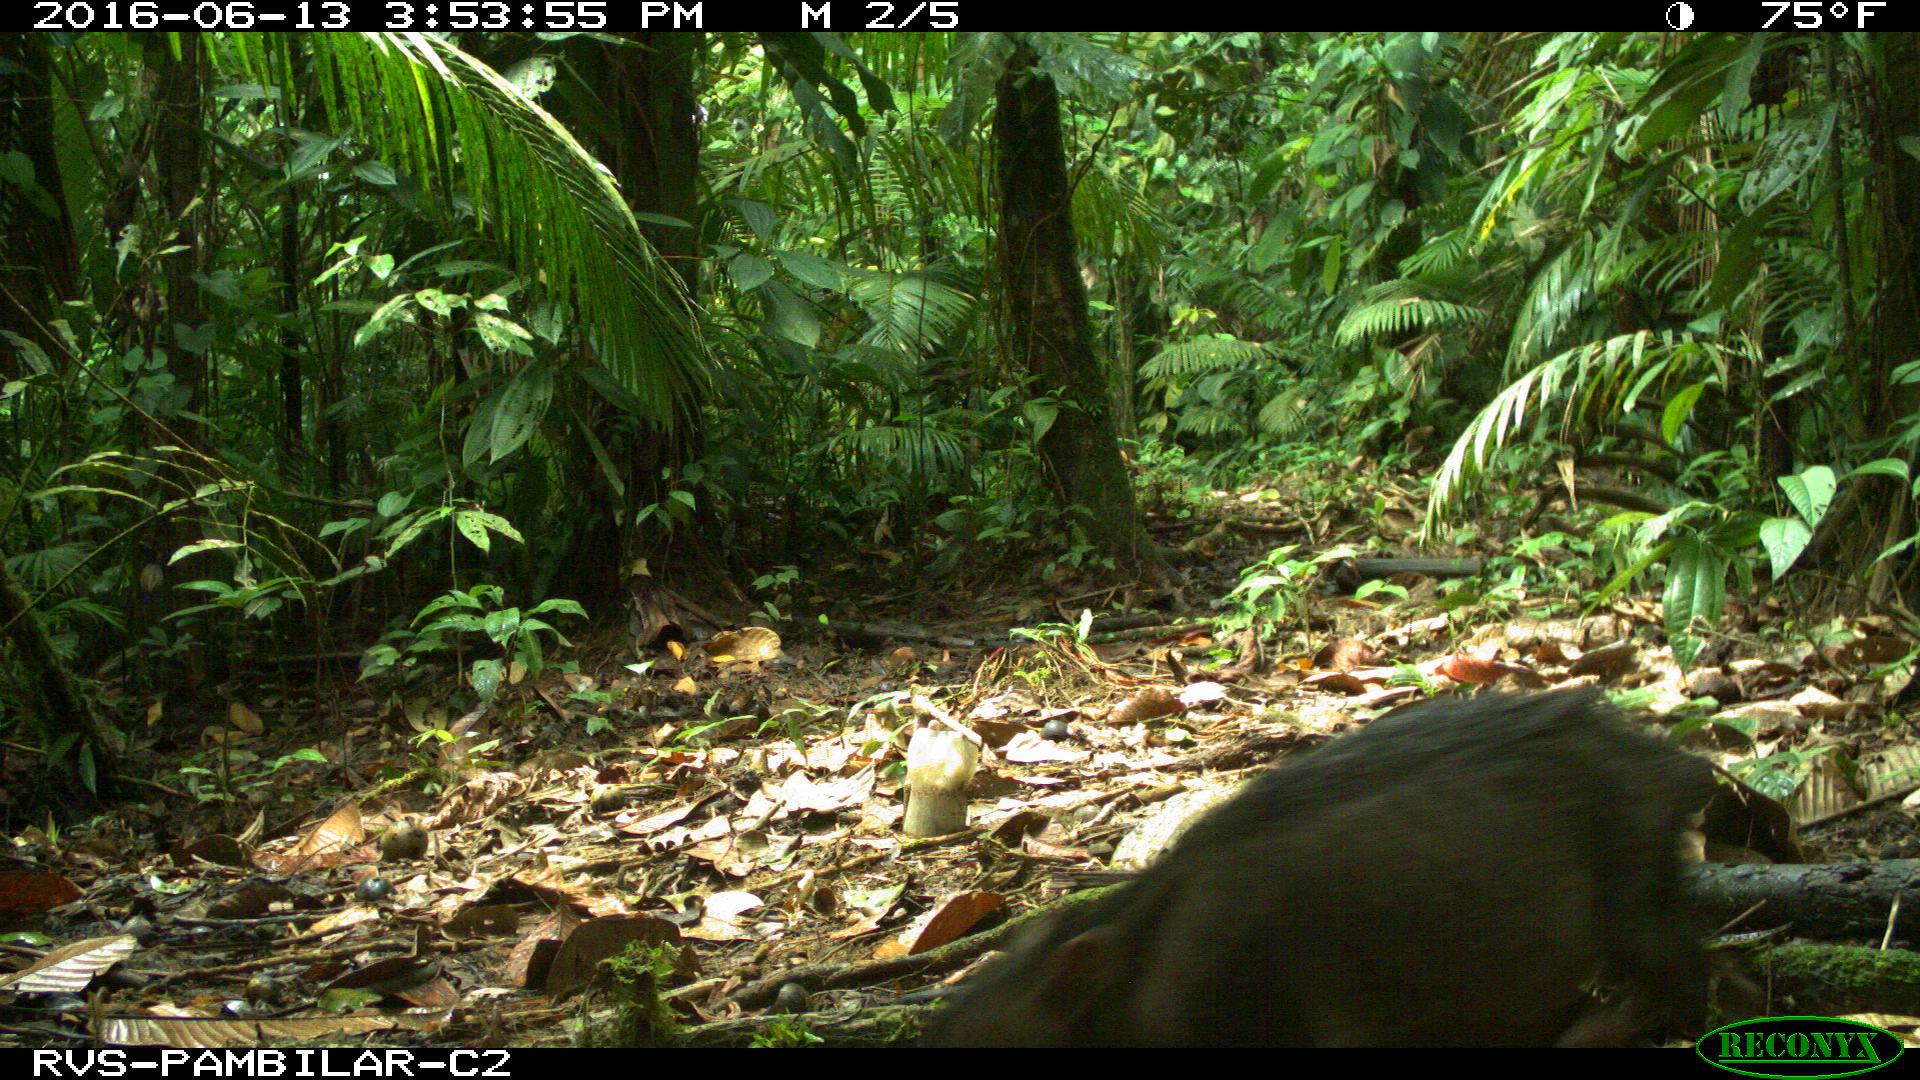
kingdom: Animalia
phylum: Chordata
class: Mammalia
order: Artiodactyla
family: Tayassuidae
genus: Tayassu
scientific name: Tayassu pecari
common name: White-lipped peccary
